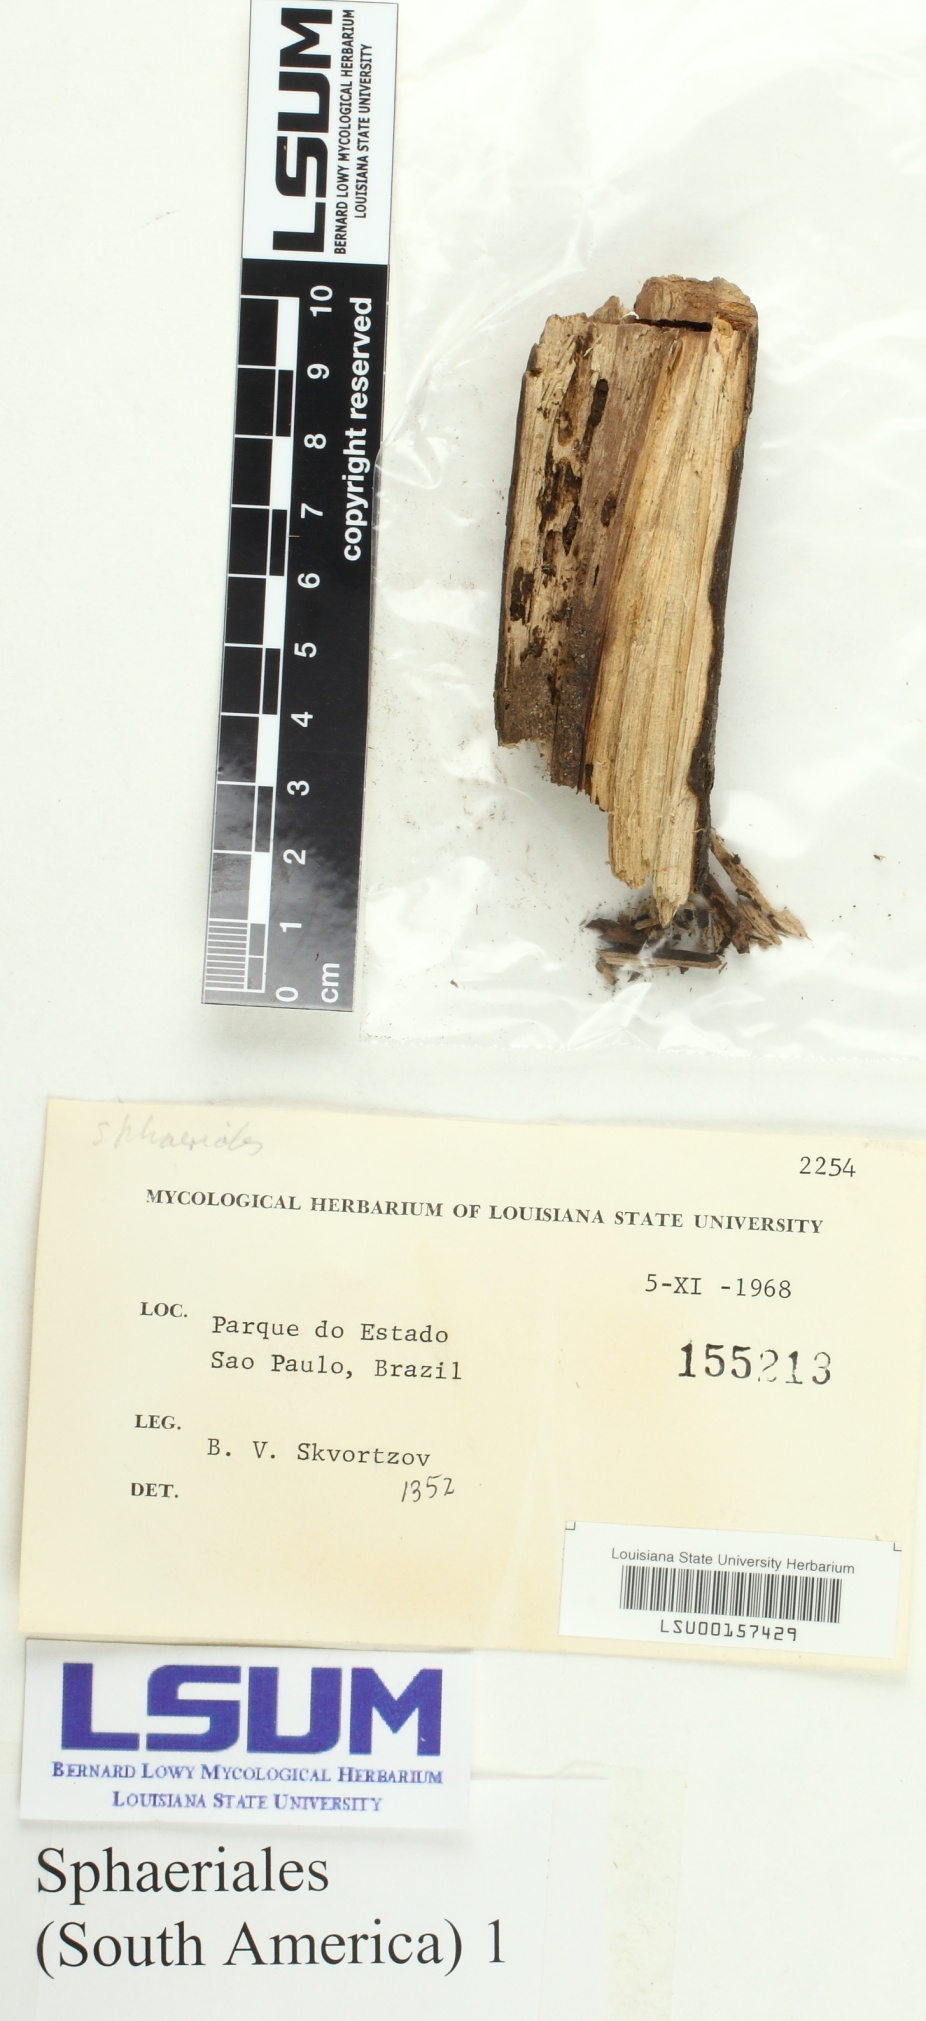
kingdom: Fungi
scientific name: Fungi
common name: Fungi
